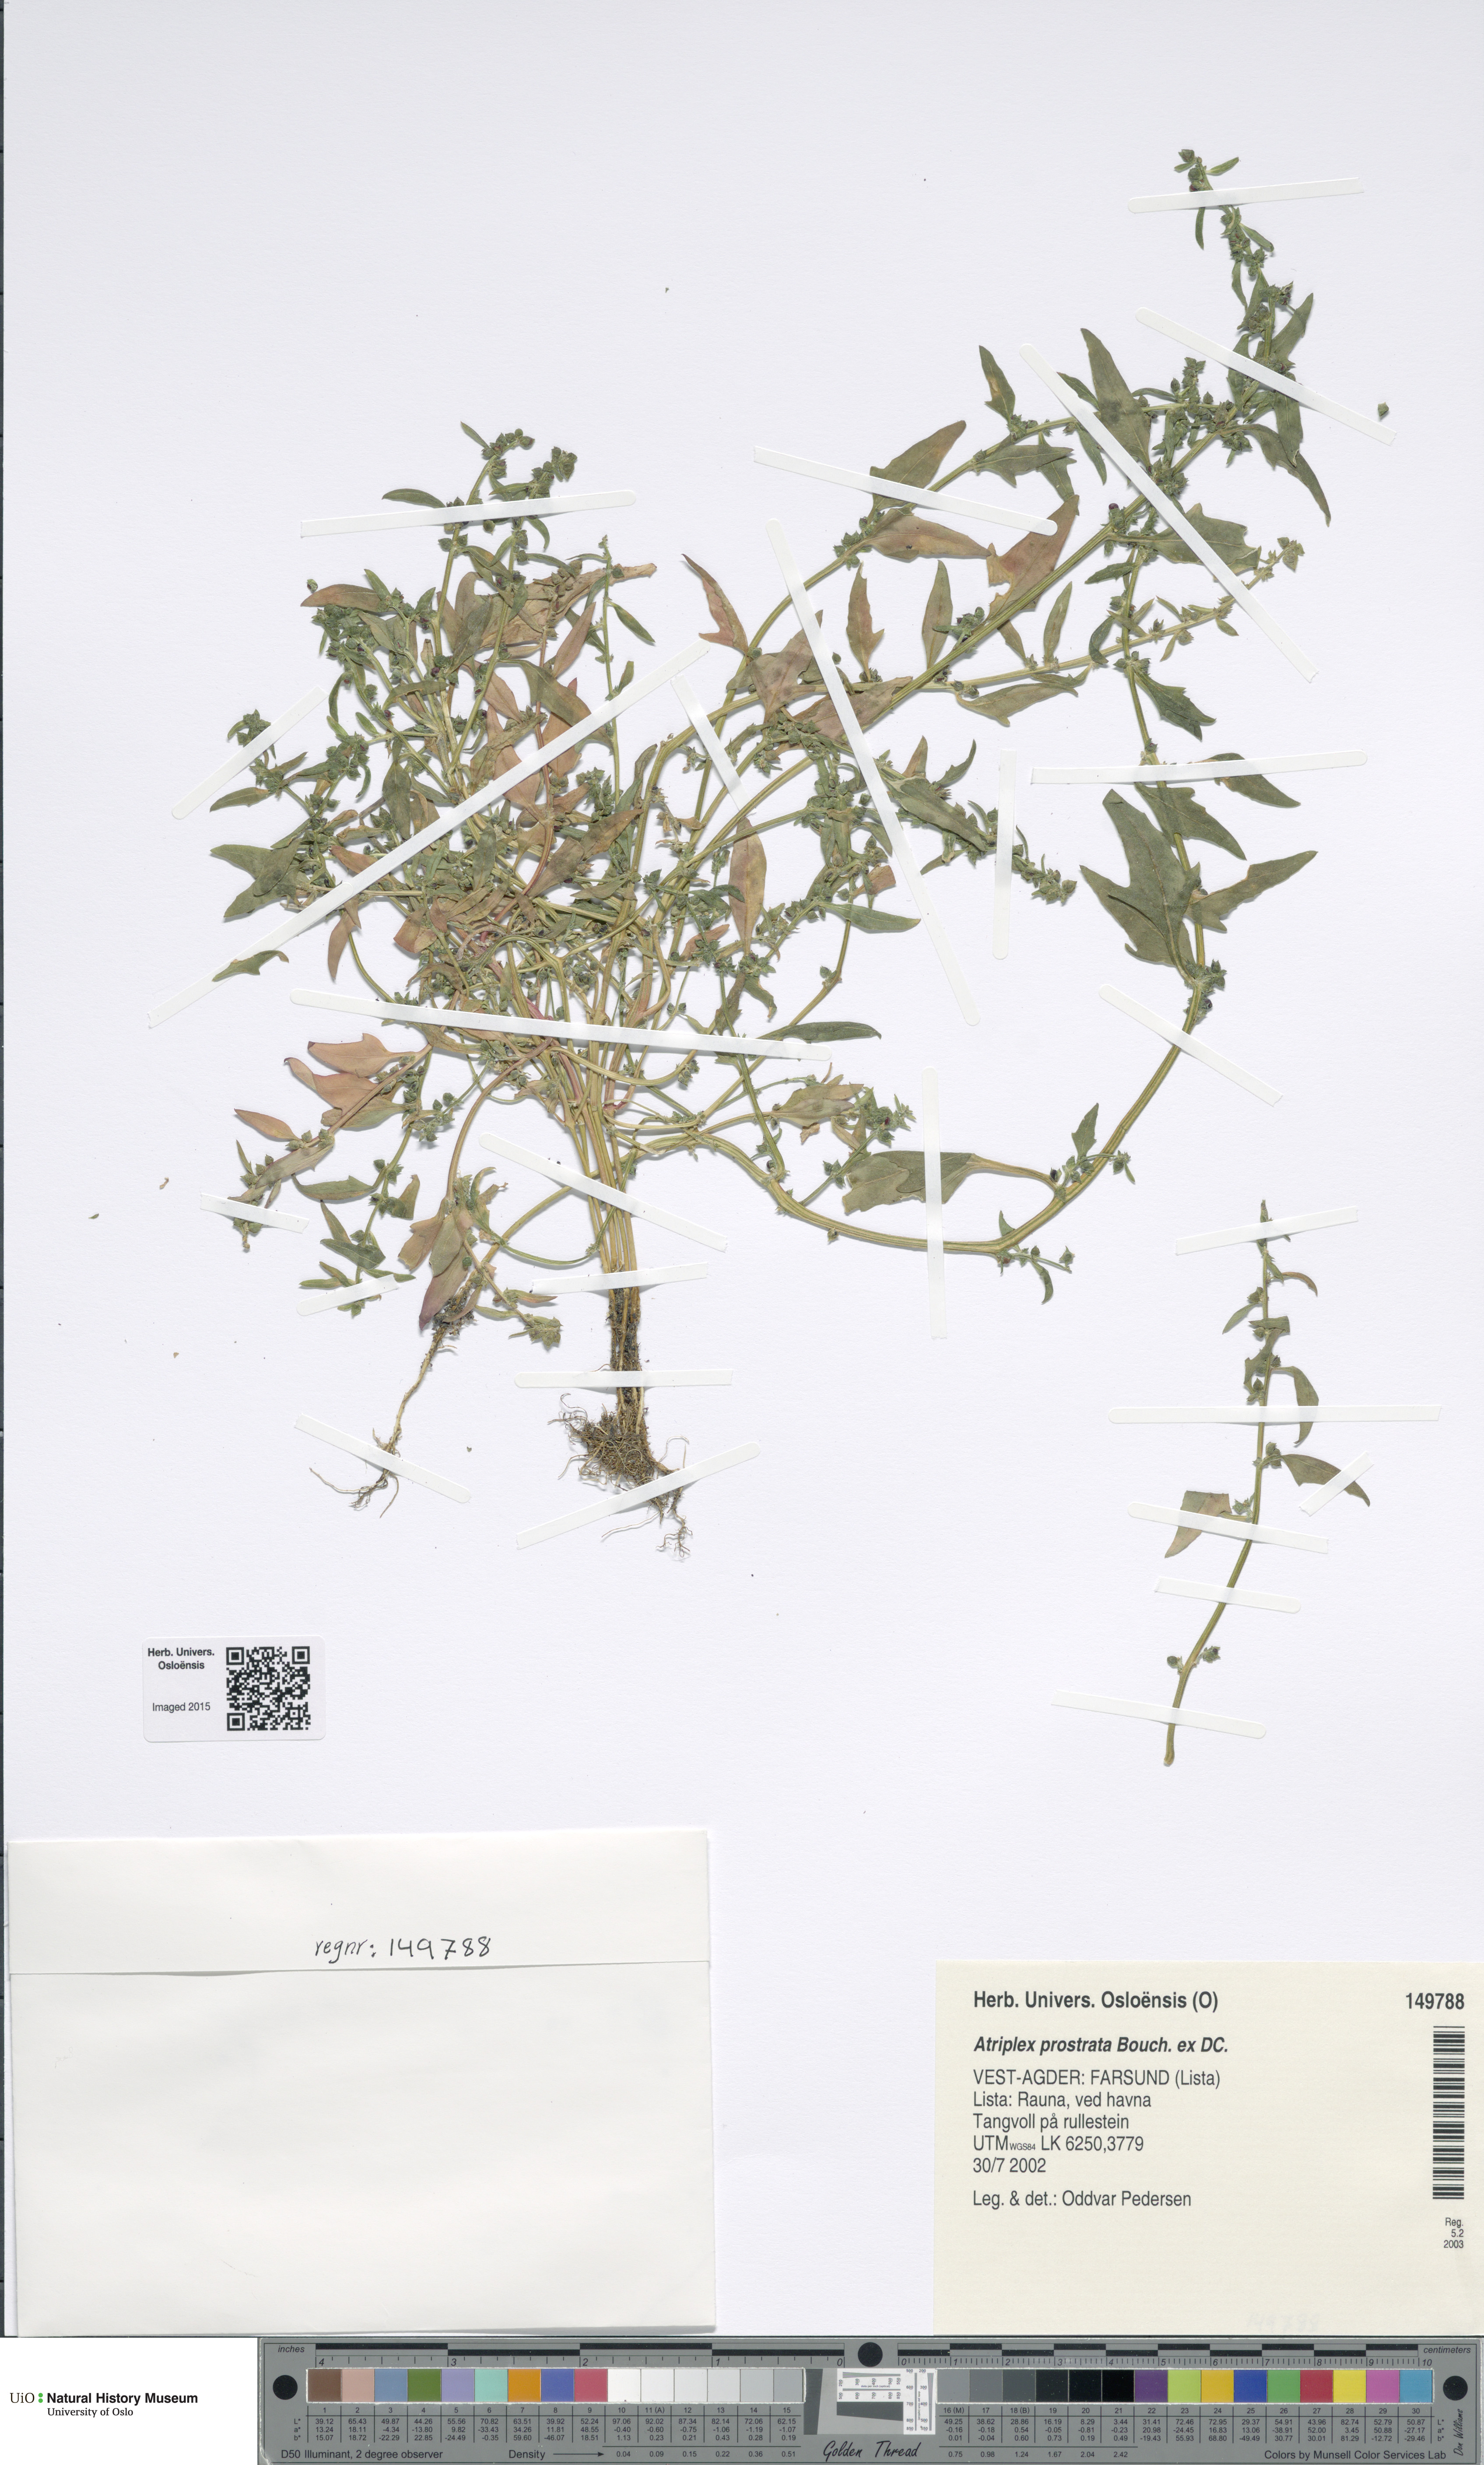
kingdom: Plantae
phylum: Tracheophyta
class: Magnoliopsida
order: Caryophyllales
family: Amaranthaceae
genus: Atriplex
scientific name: Atriplex prostrata
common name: Spear-leaved orache
